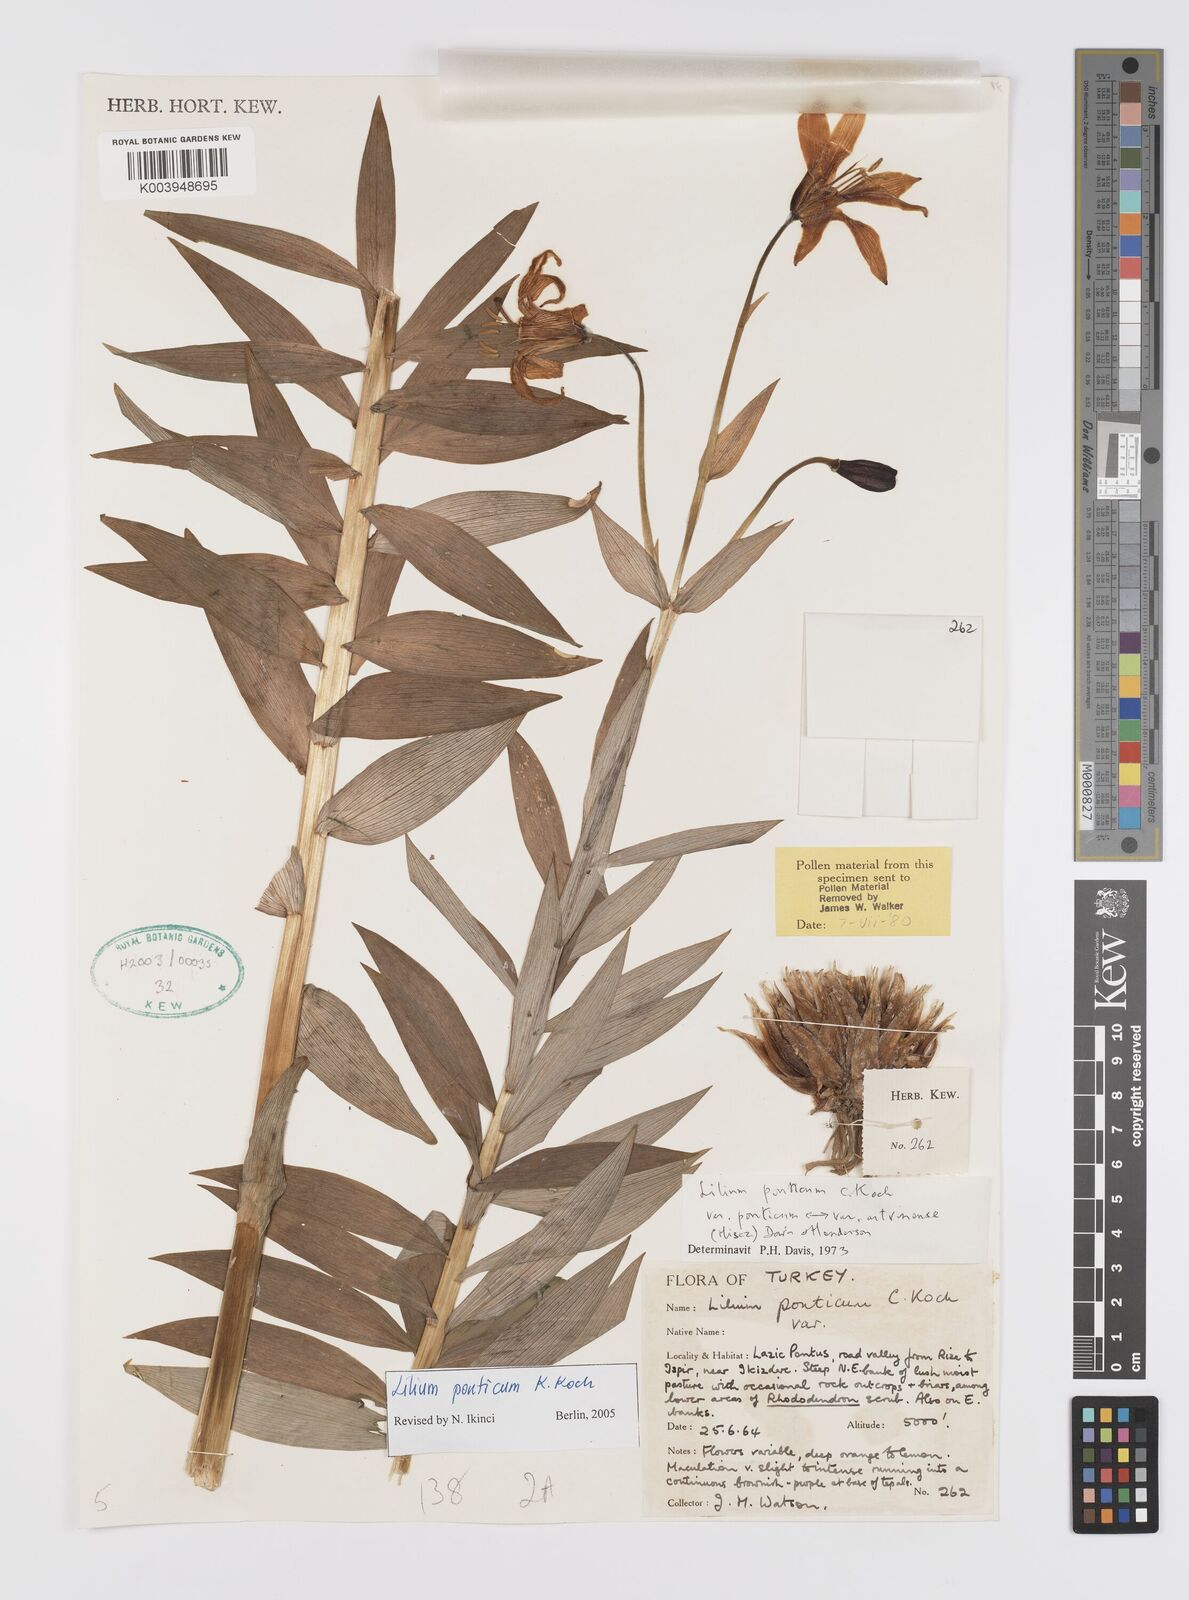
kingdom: Plantae
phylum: Tracheophyta
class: Liliopsida
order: Liliales
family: Liliaceae
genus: Lilium
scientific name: Lilium ponticum
